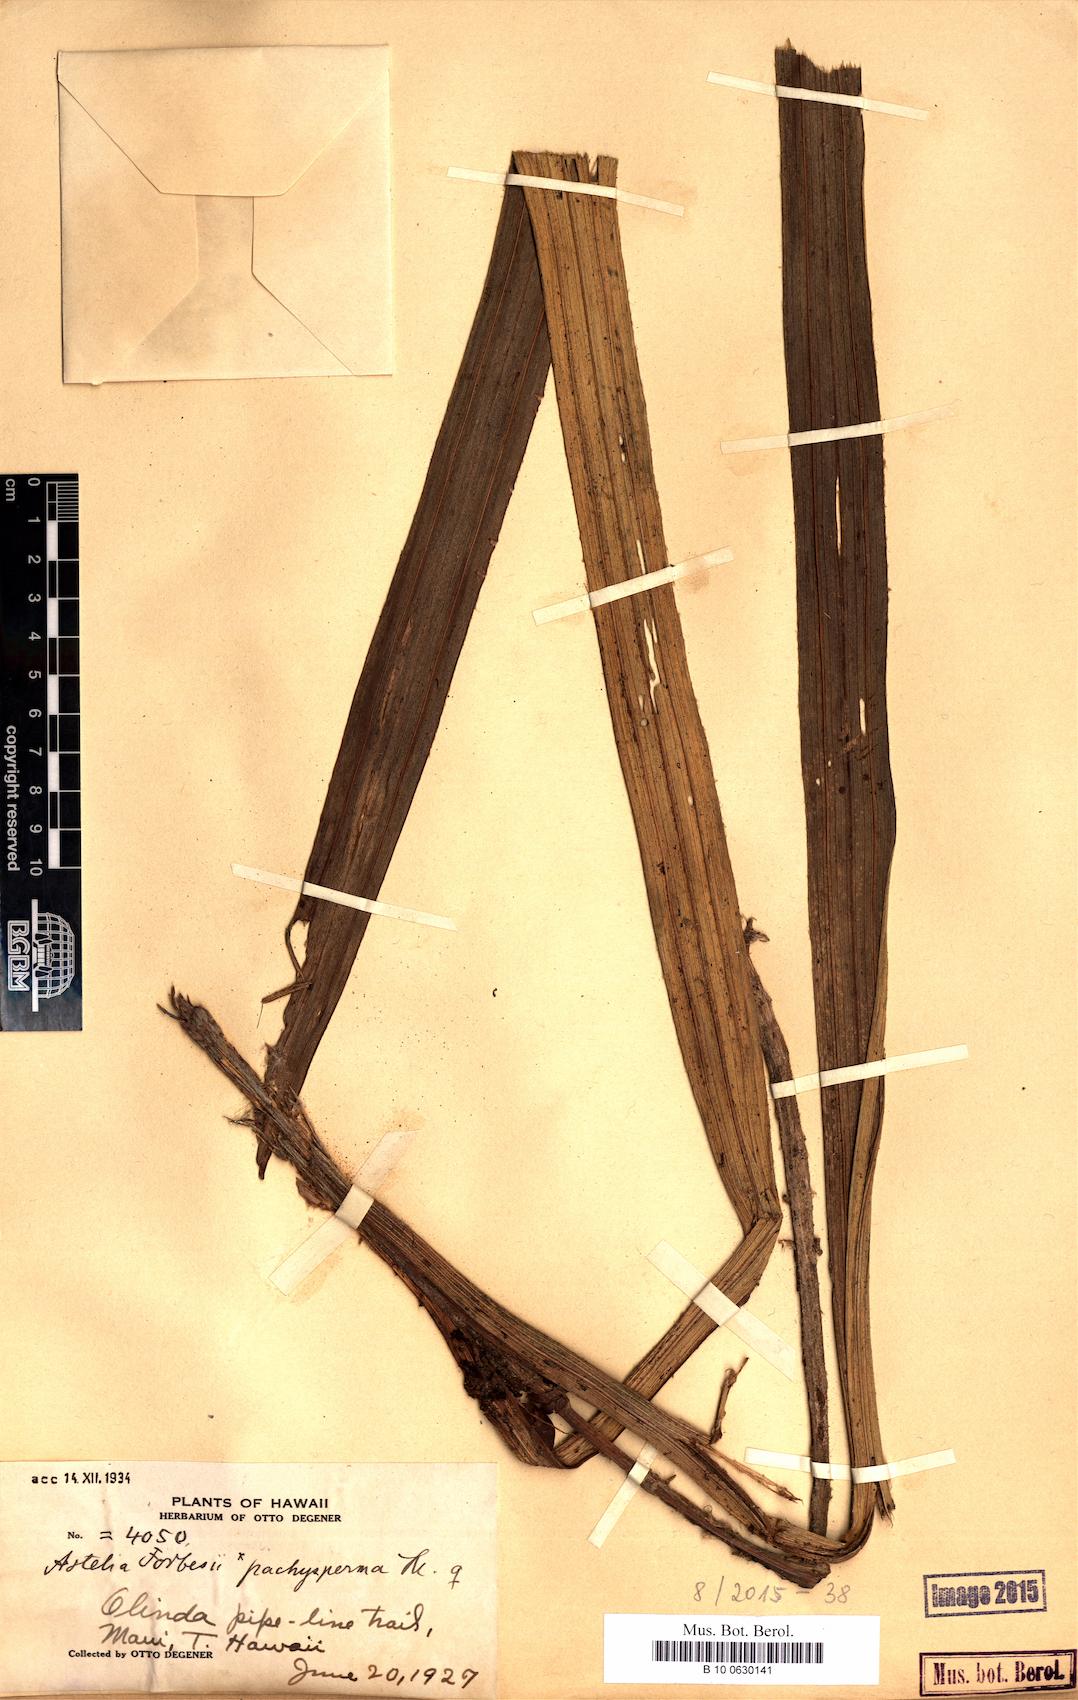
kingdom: Plantae
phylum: Tracheophyta
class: Magnoliopsida
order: Caryophyllales
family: Talinaceae
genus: Talinum
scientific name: Talinum fruticosum
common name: Verdolaga-francesa
